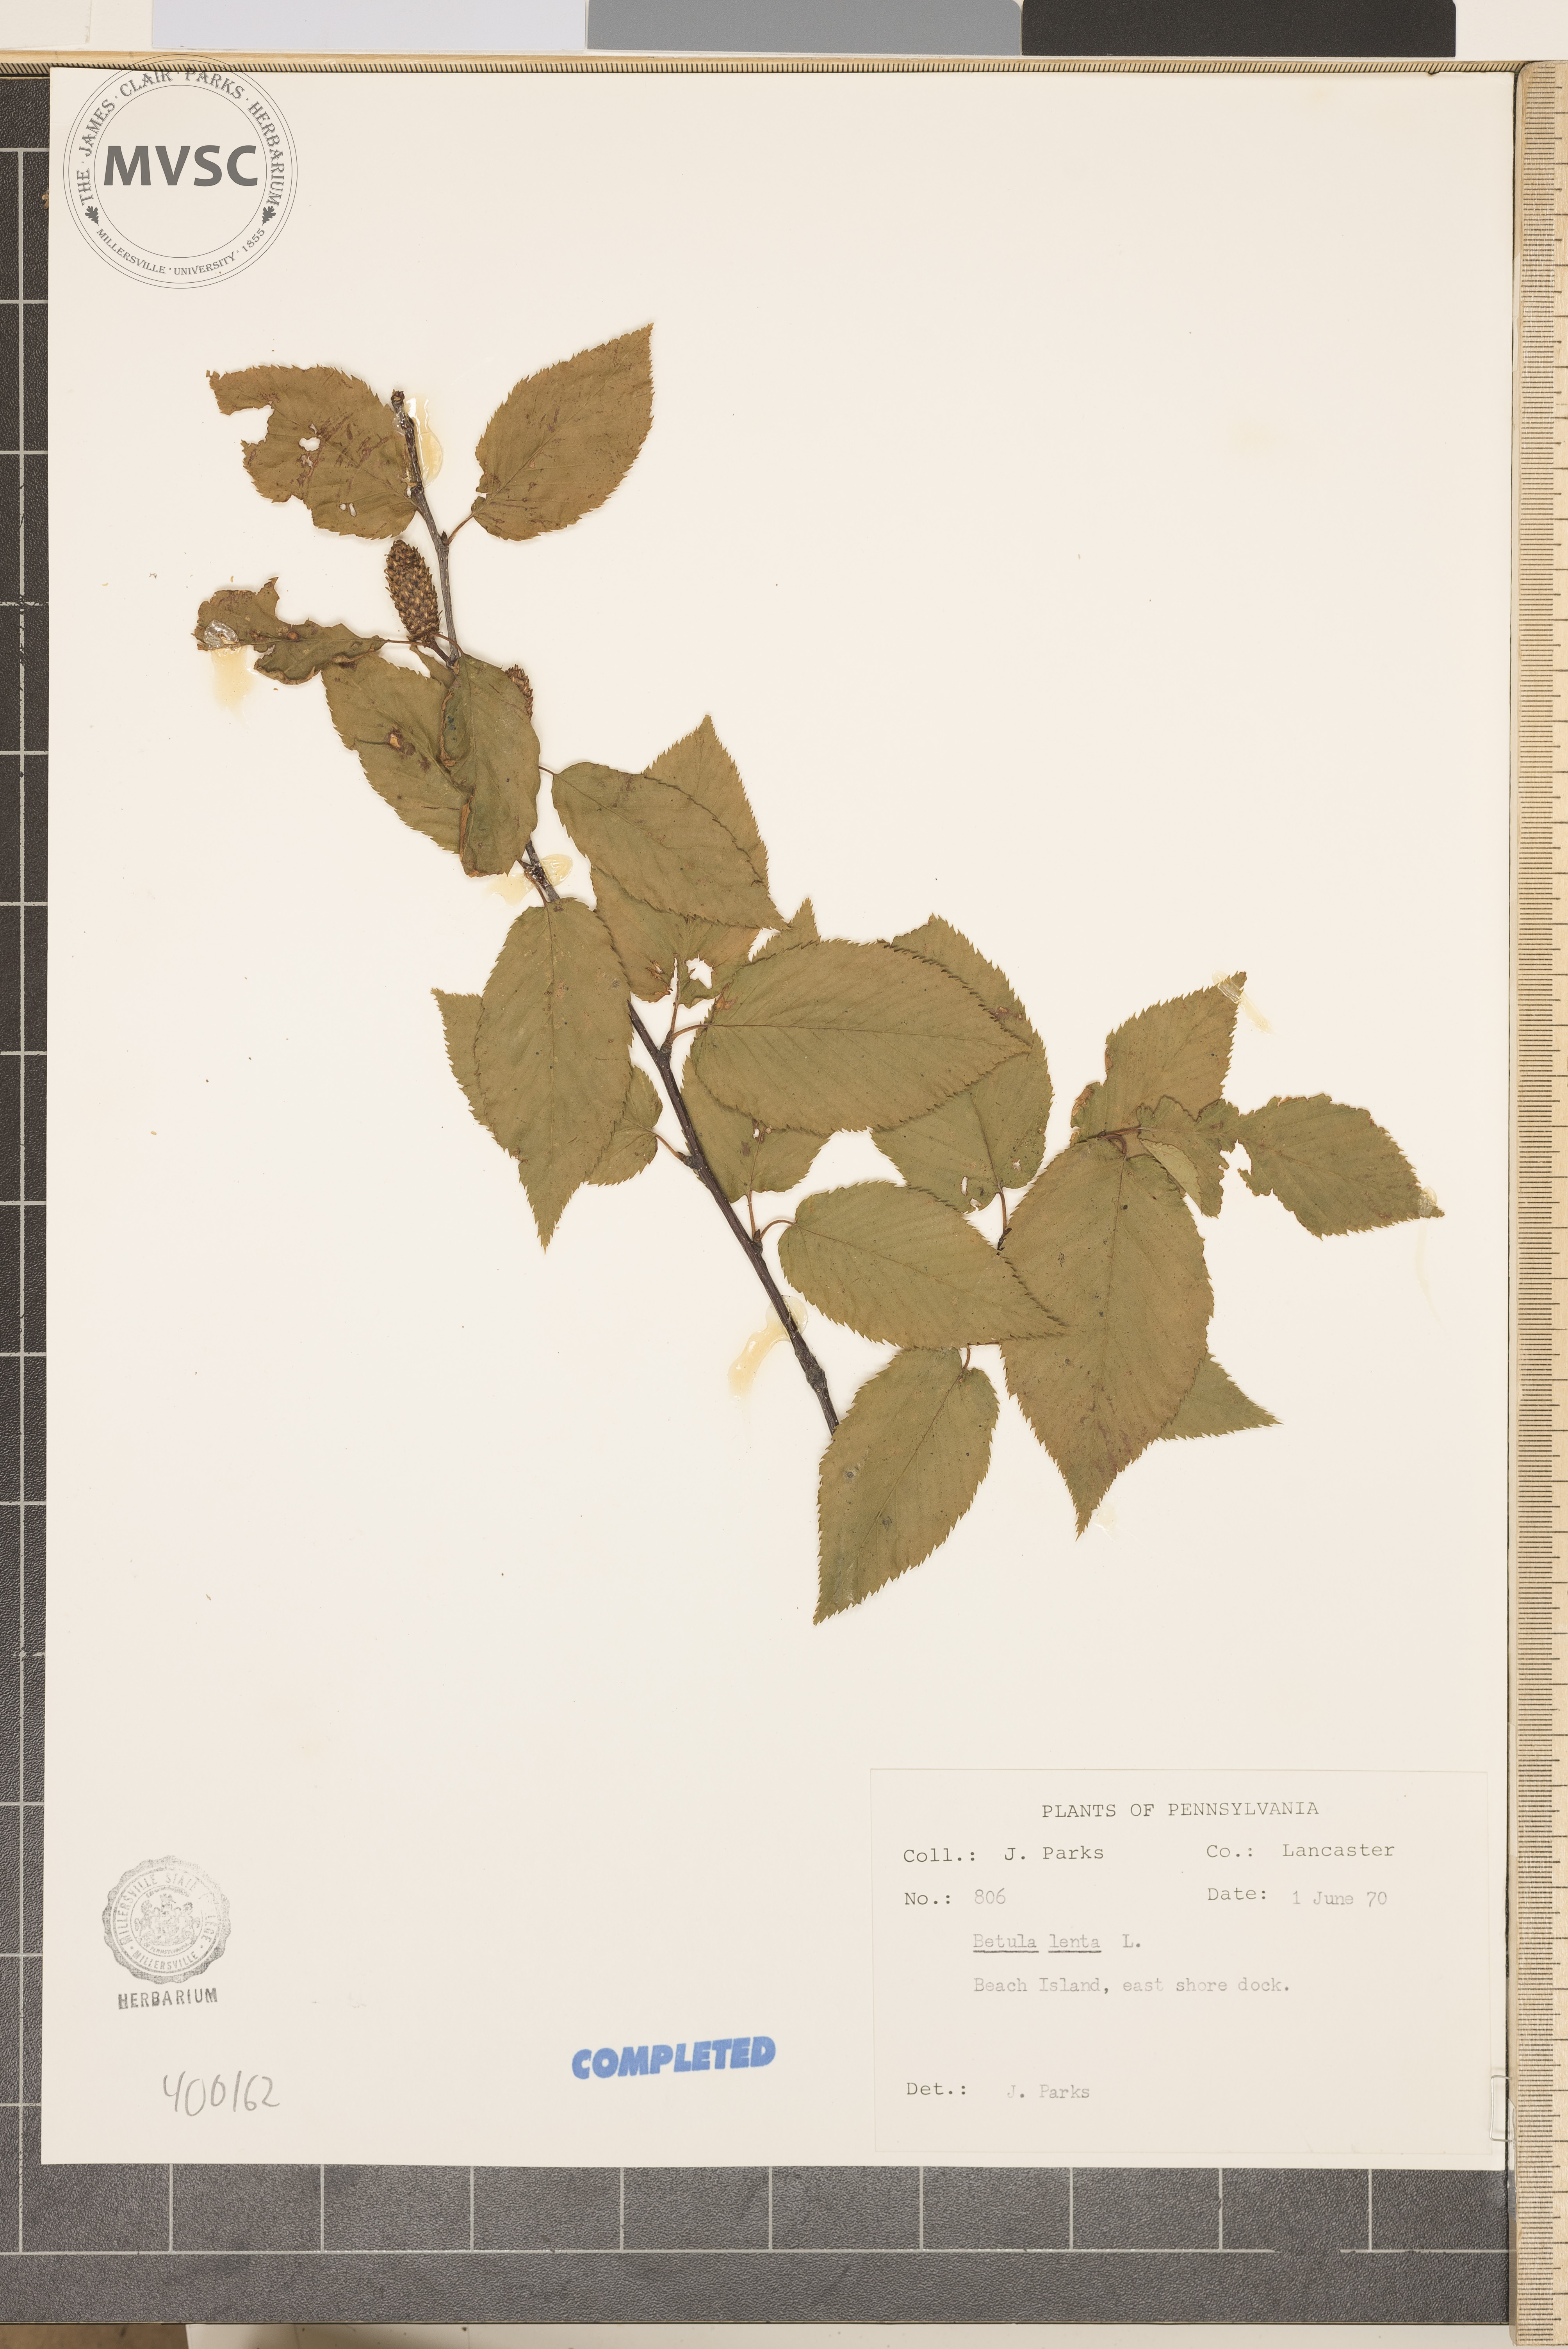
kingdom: Plantae
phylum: Tracheophyta
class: Magnoliopsida
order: Fagales
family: Betulaceae
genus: Betula
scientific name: Betula lenta
